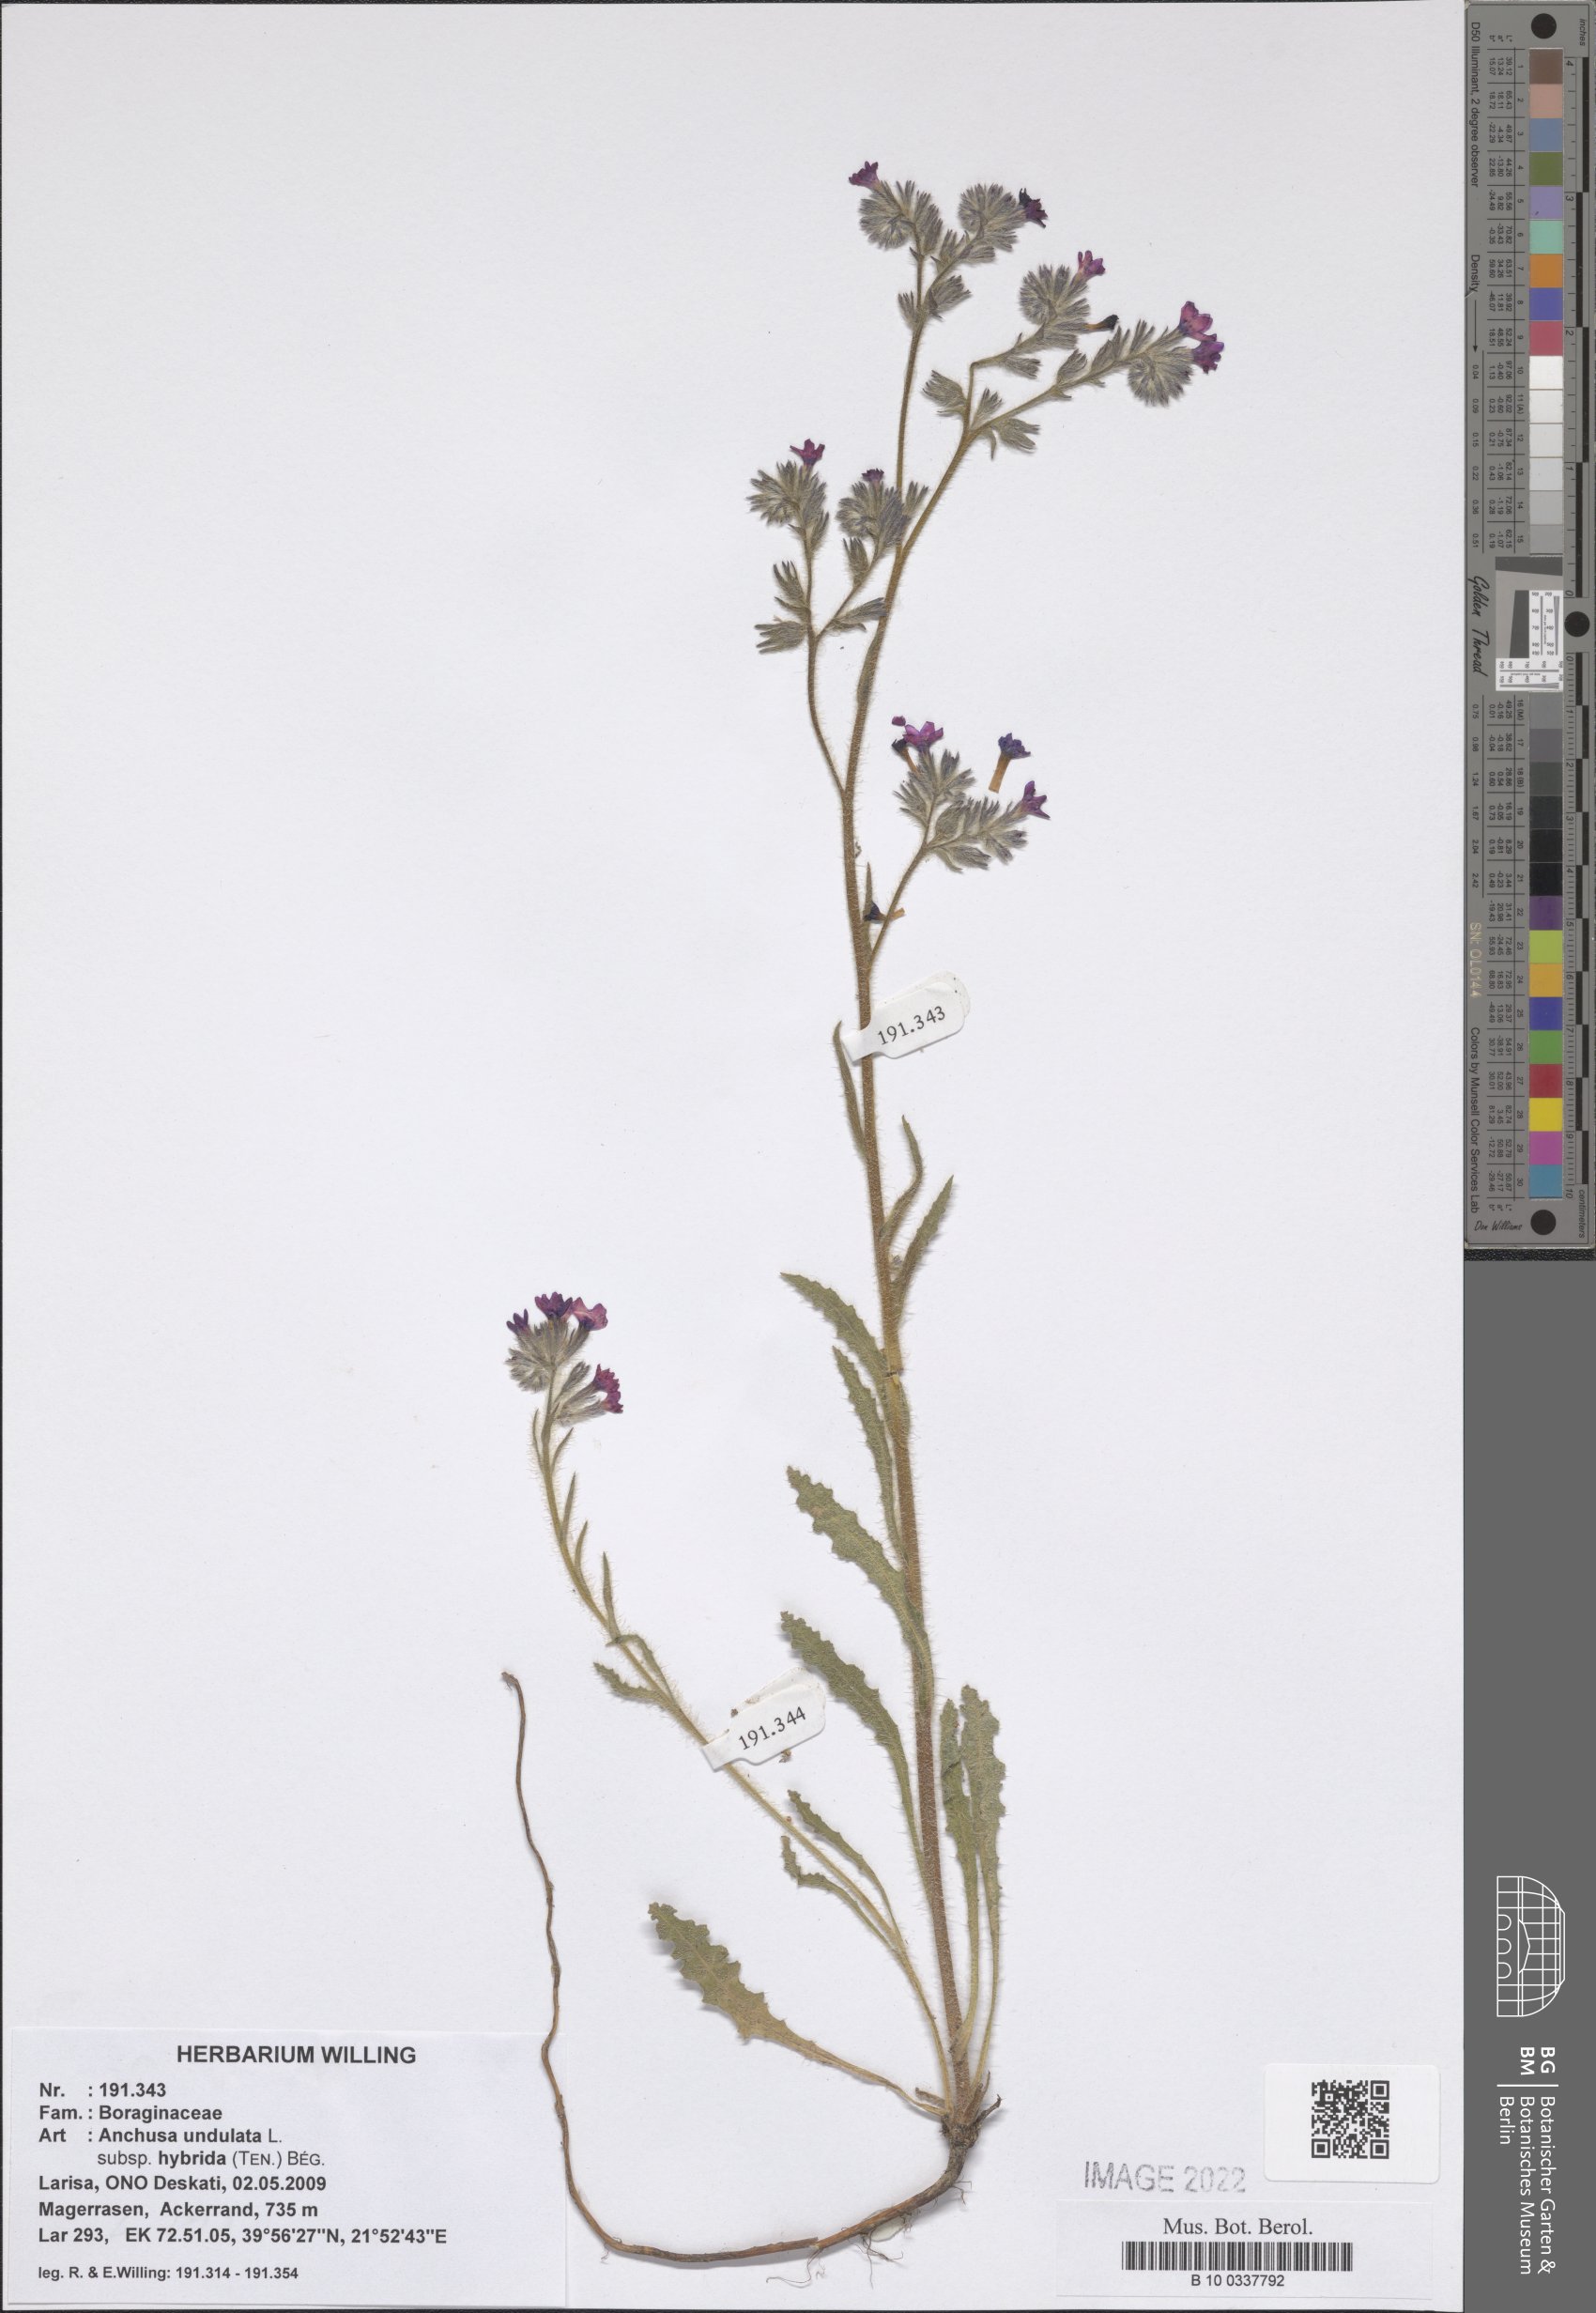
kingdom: Plantae
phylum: Tracheophyta
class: Magnoliopsida
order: Boraginales
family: Boraginaceae
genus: Anchusa
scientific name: Anchusa undulata
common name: Undulate alkanet
